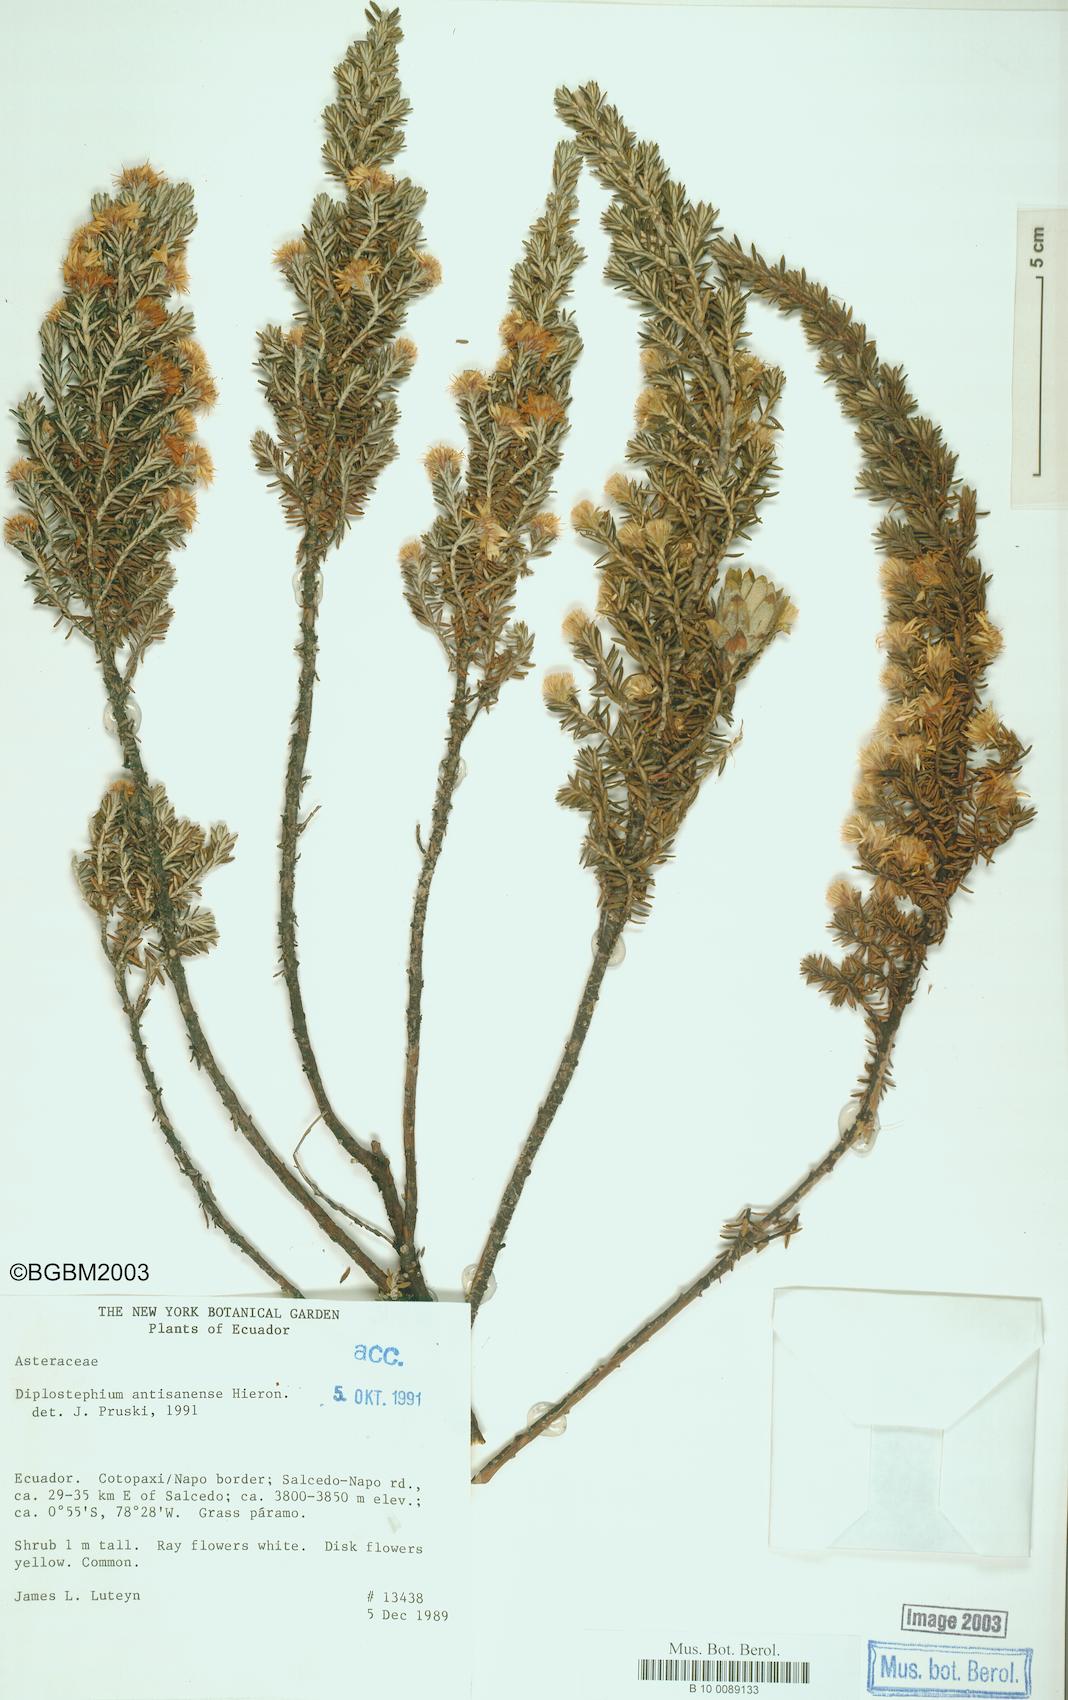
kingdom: Plantae
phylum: Tracheophyta
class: Magnoliopsida
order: Asterales
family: Asteraceae
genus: Diplostephium
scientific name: Diplostephium ericoides
